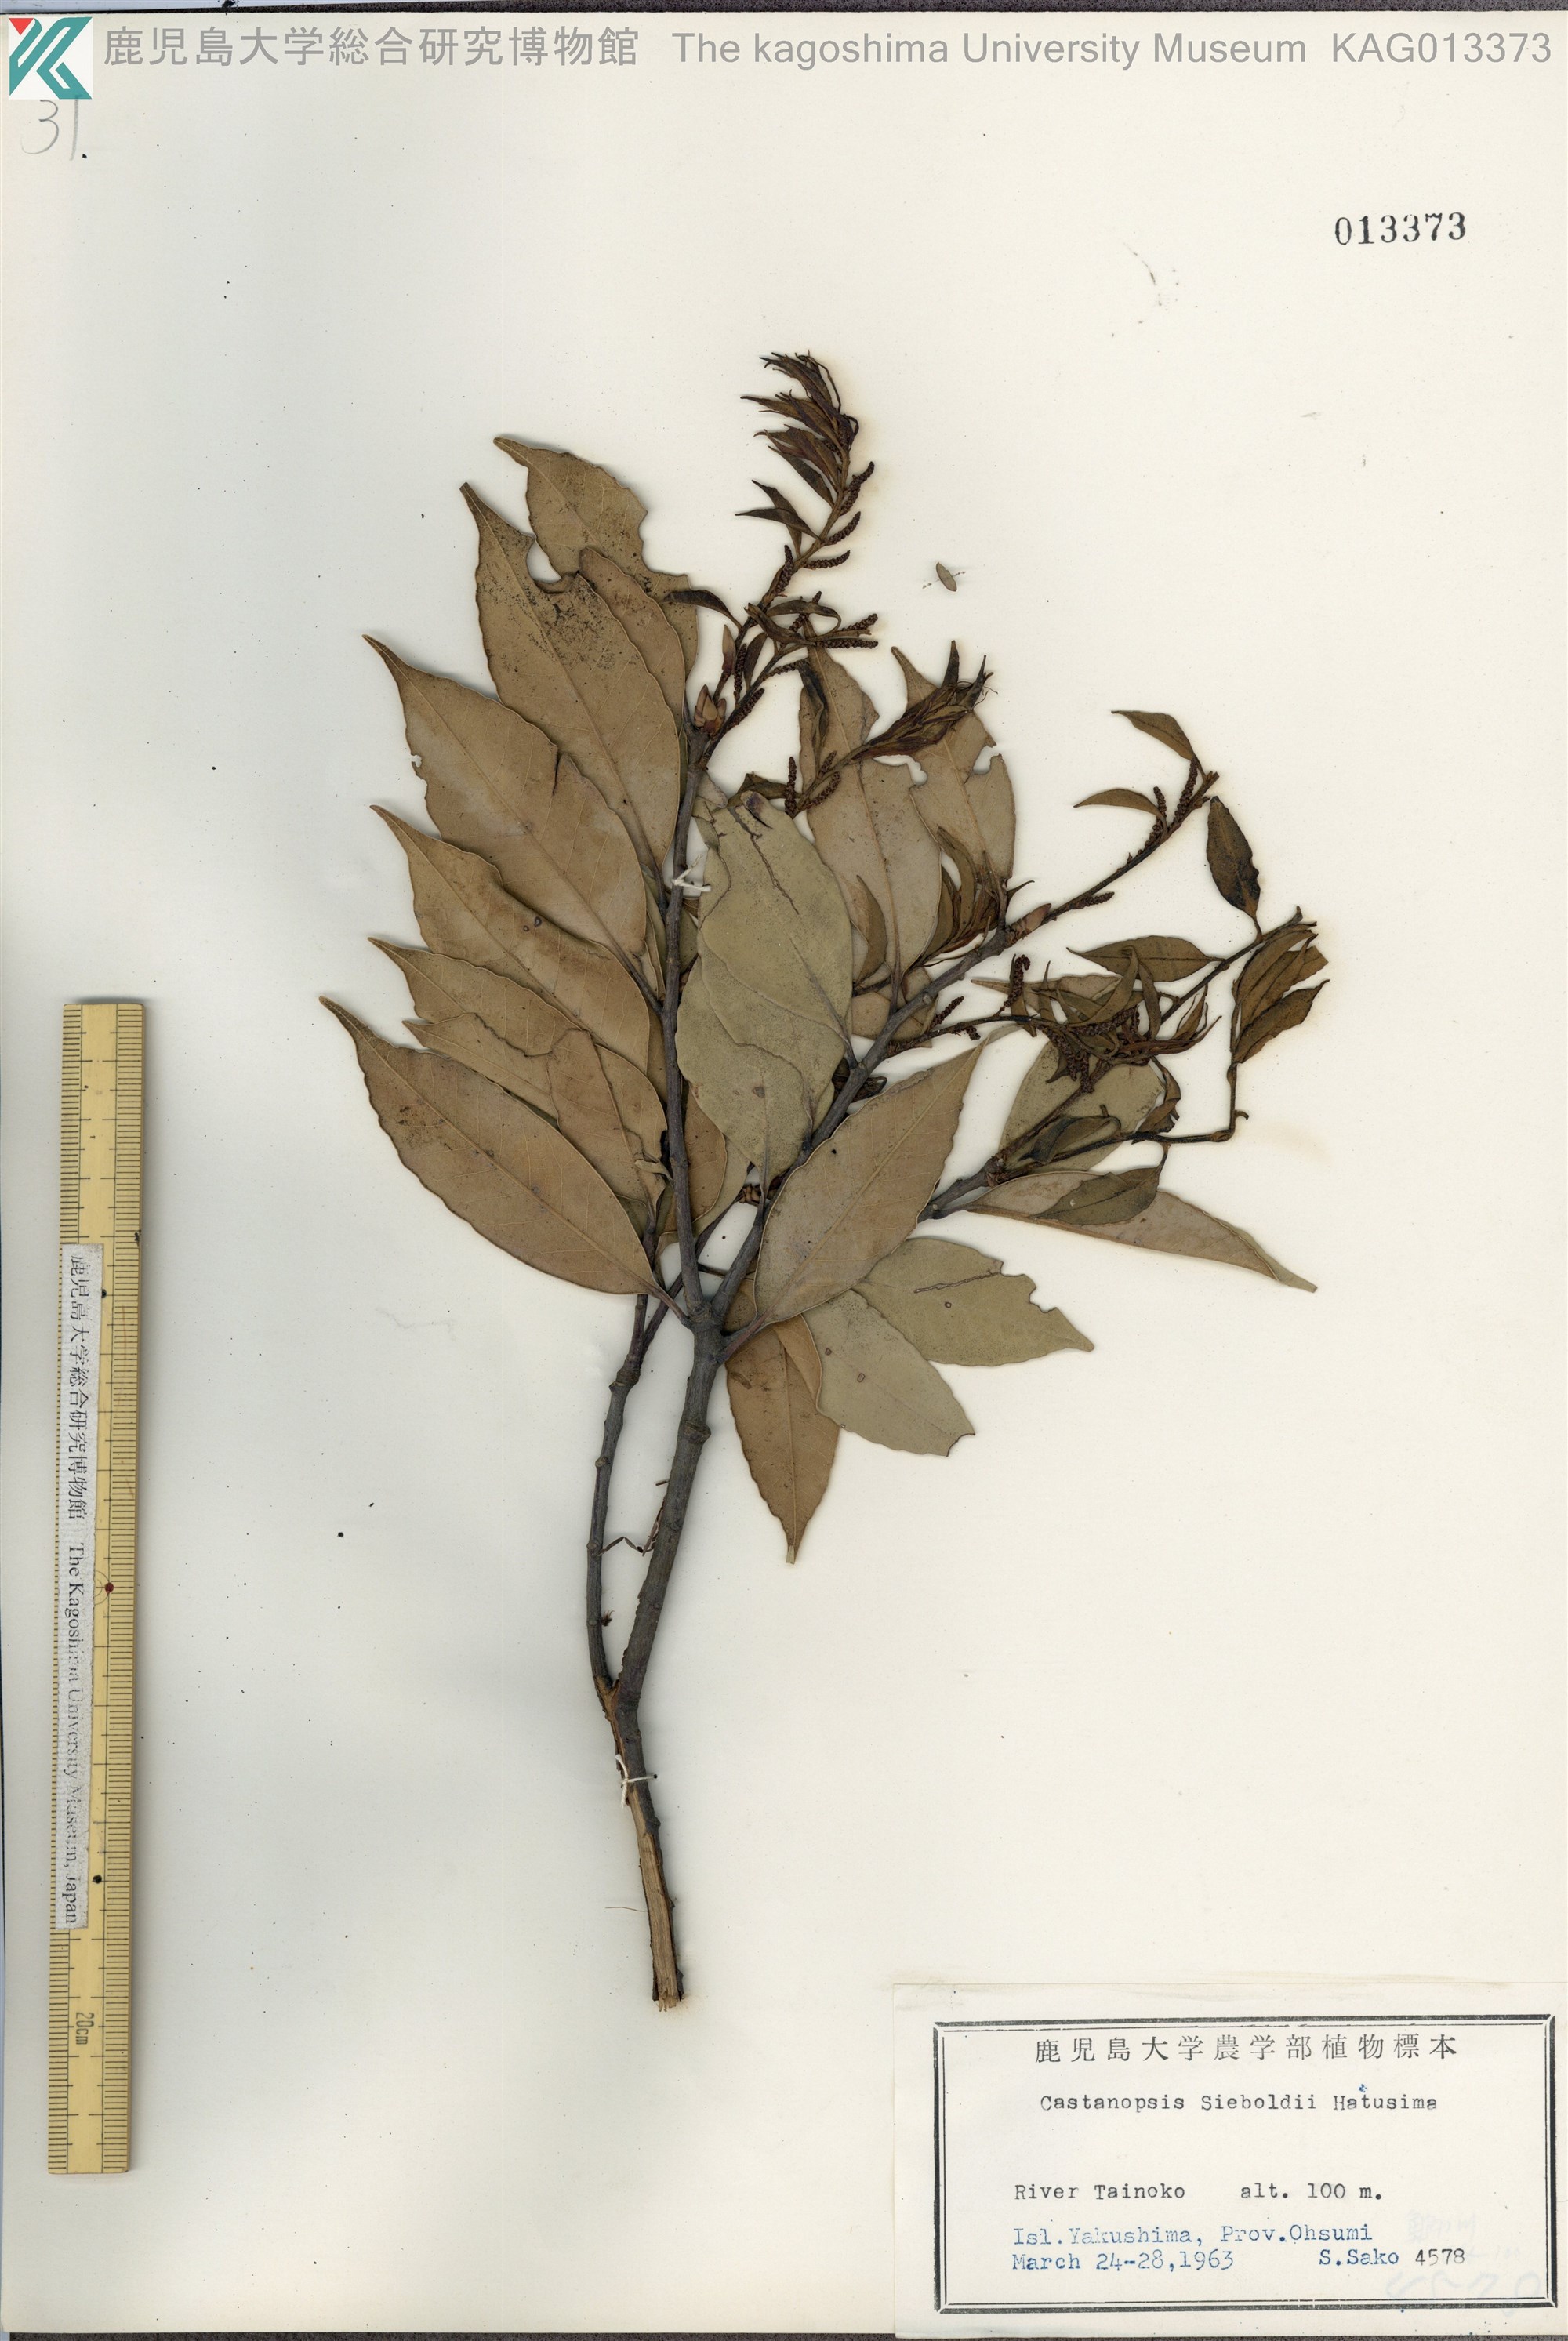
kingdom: Plantae
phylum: Tracheophyta
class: Magnoliopsida
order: Fagales
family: Fagaceae
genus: Castanopsis
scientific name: Castanopsis sieboldii
